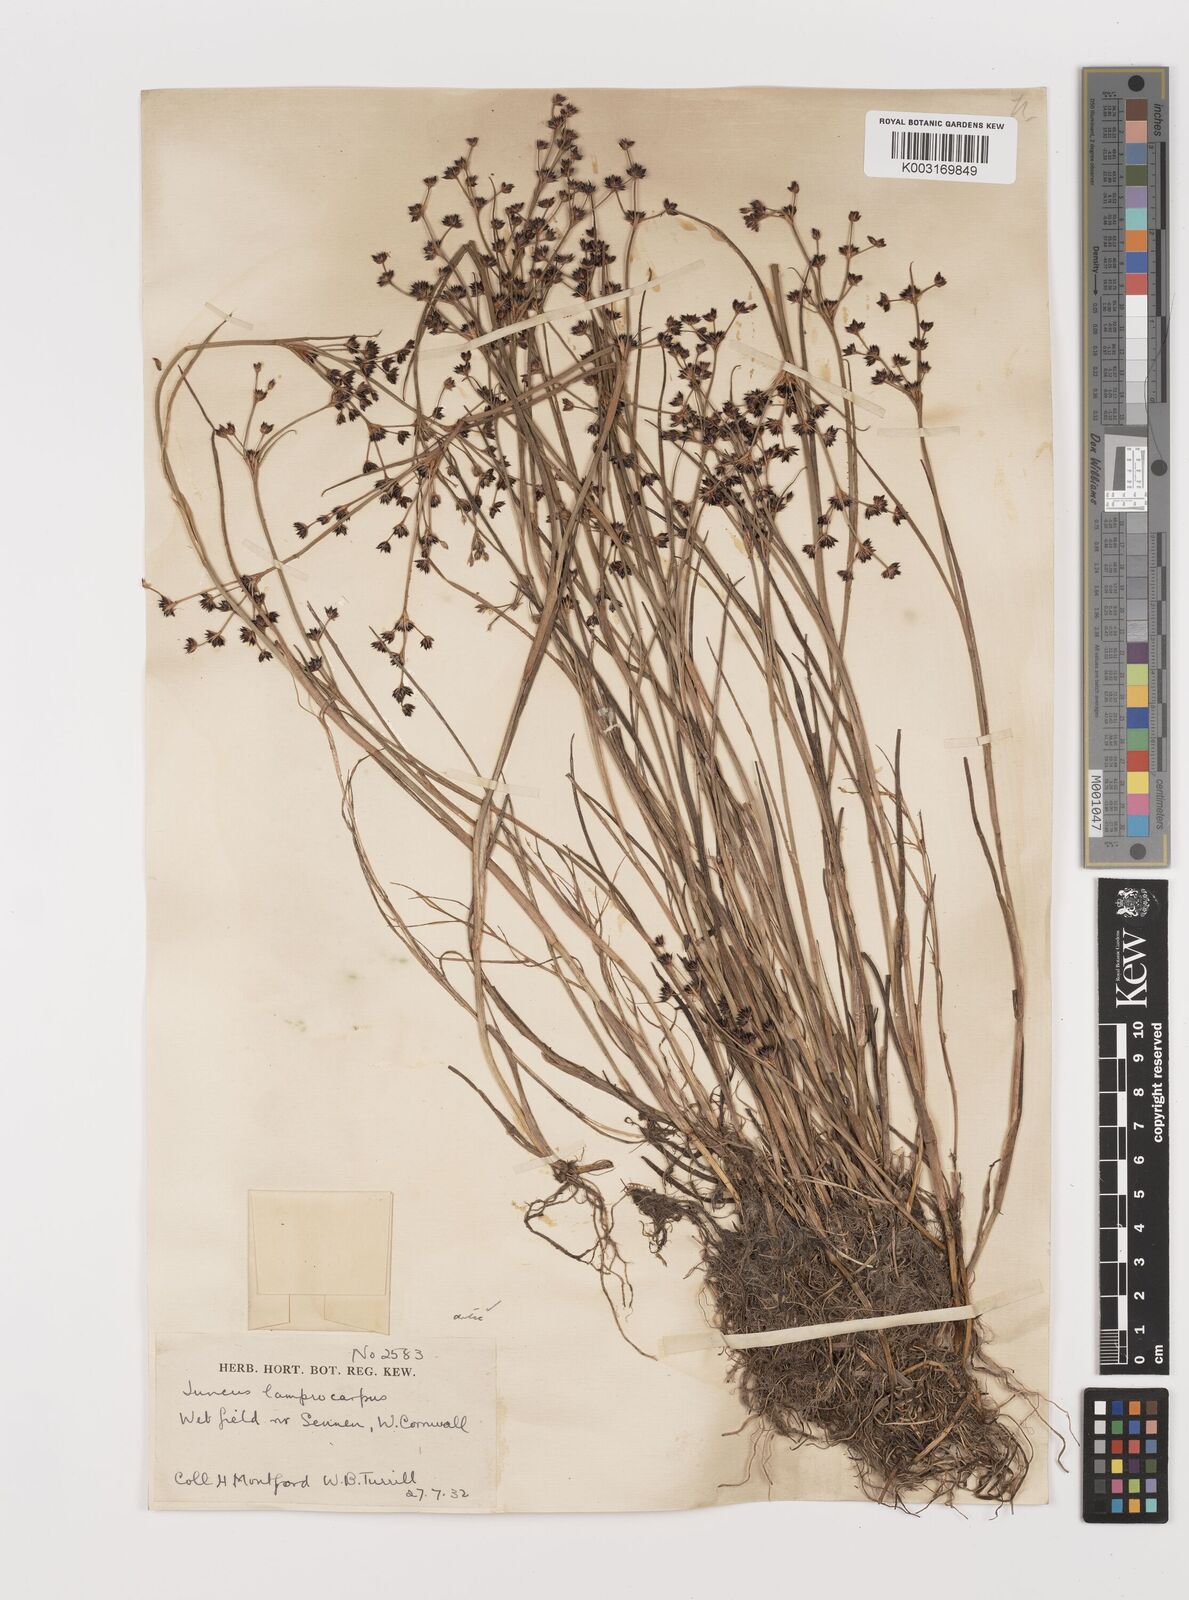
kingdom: Plantae
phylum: Tracheophyta
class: Liliopsida
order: Poales
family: Juncaceae
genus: Juncus
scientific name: Juncus articulatus
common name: Jointed rush
